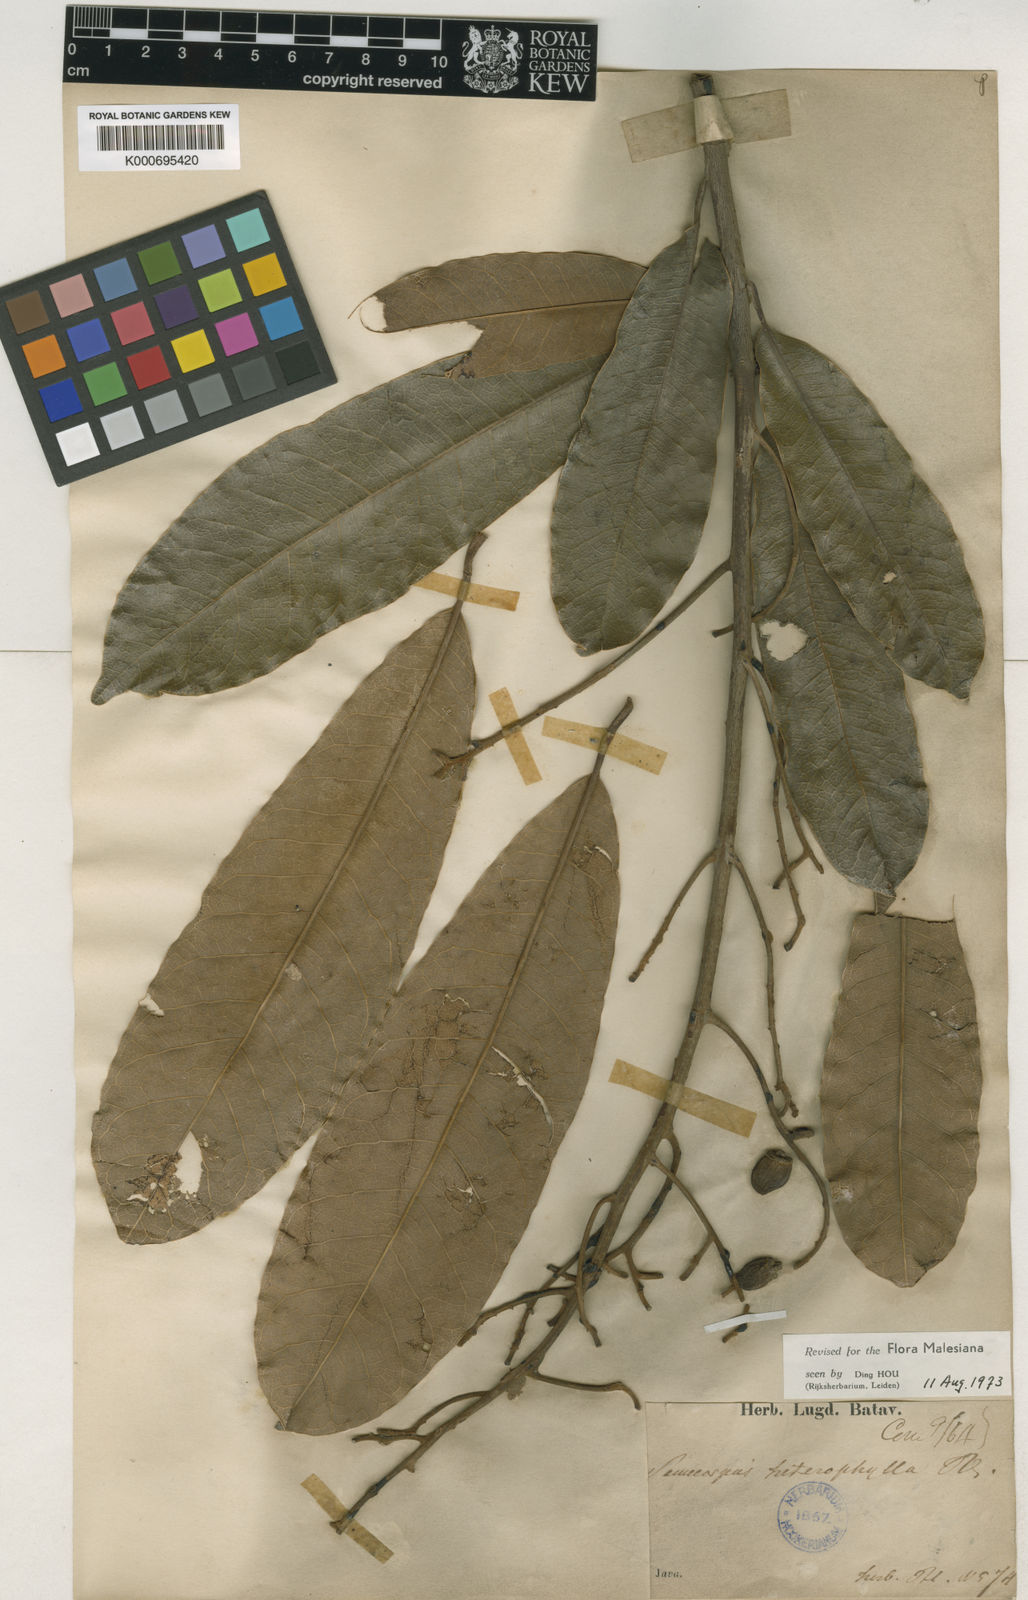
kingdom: Plantae
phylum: Tracheophyta
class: Magnoliopsida
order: Sapindales
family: Anacardiaceae
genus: Semecarpus
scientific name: Semecarpus heterophyllus
